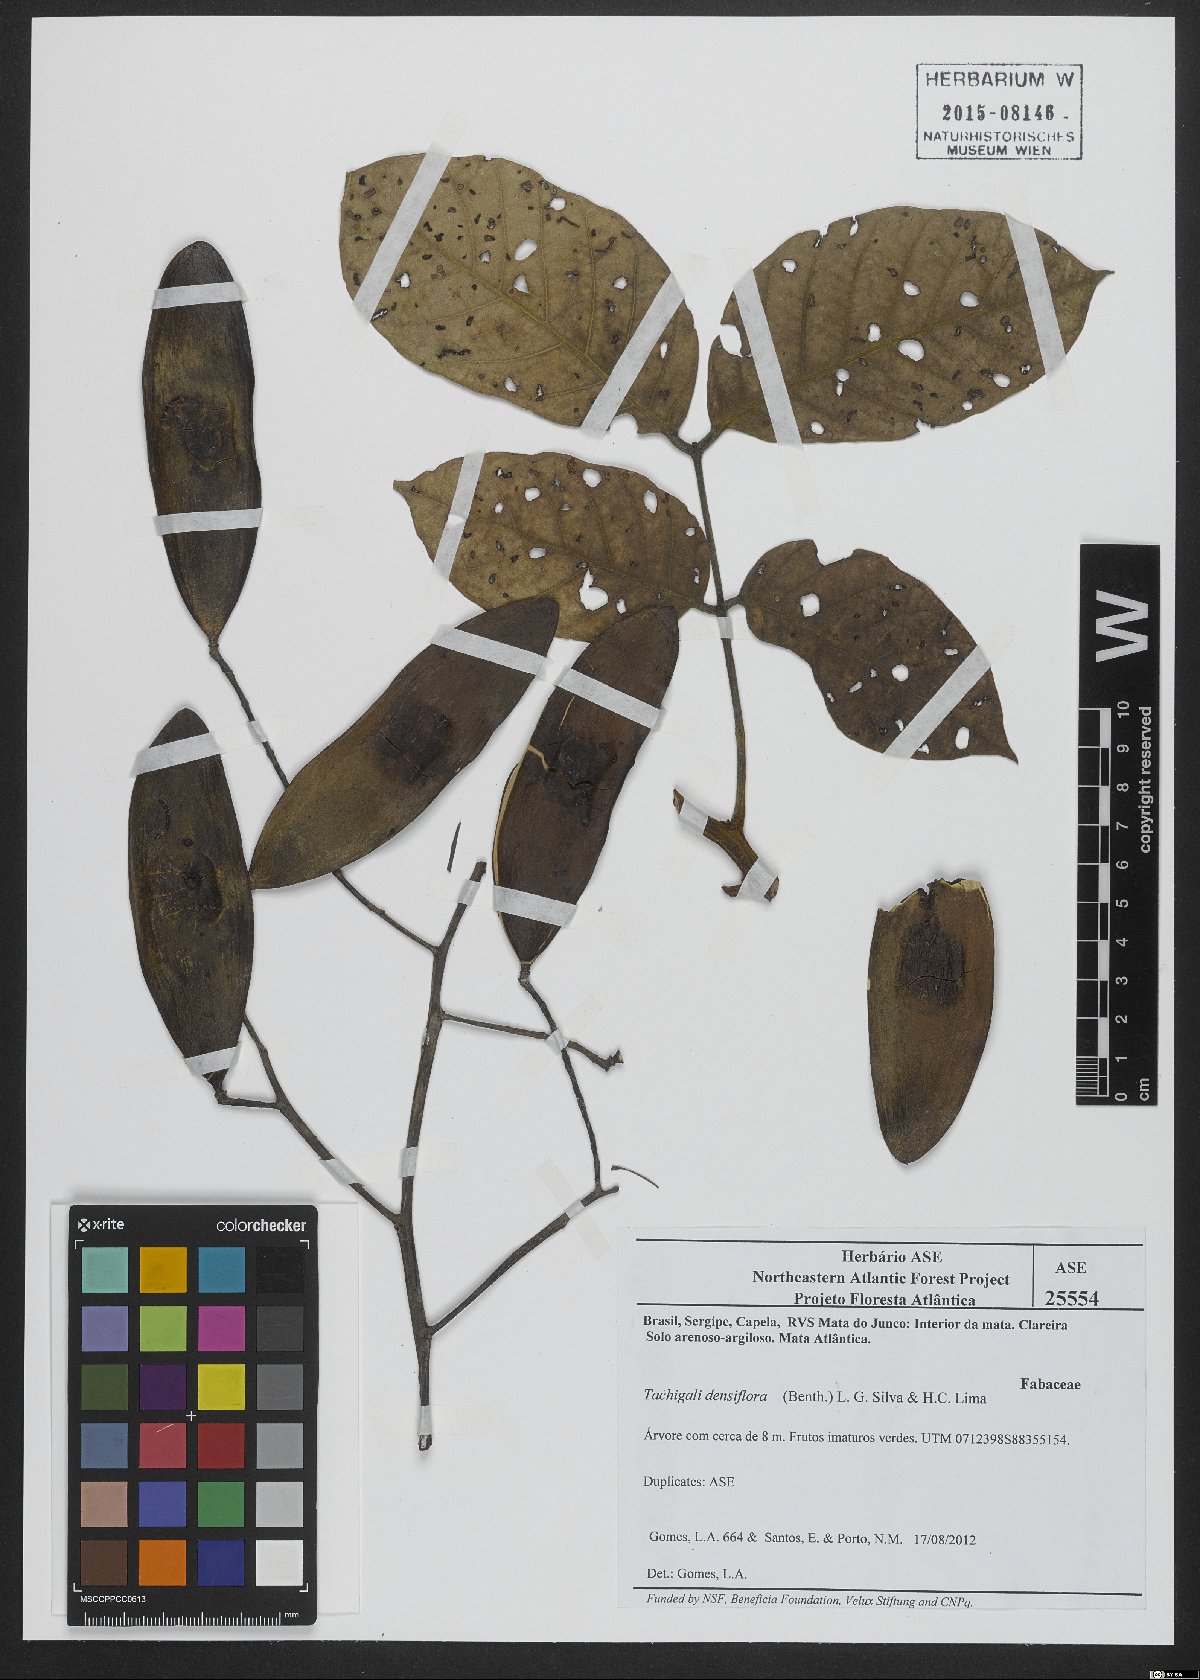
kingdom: Plantae
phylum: Tracheophyta
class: Magnoliopsida
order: Fabales
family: Fabaceae
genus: Tachigali
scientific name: Tachigali densiflora
